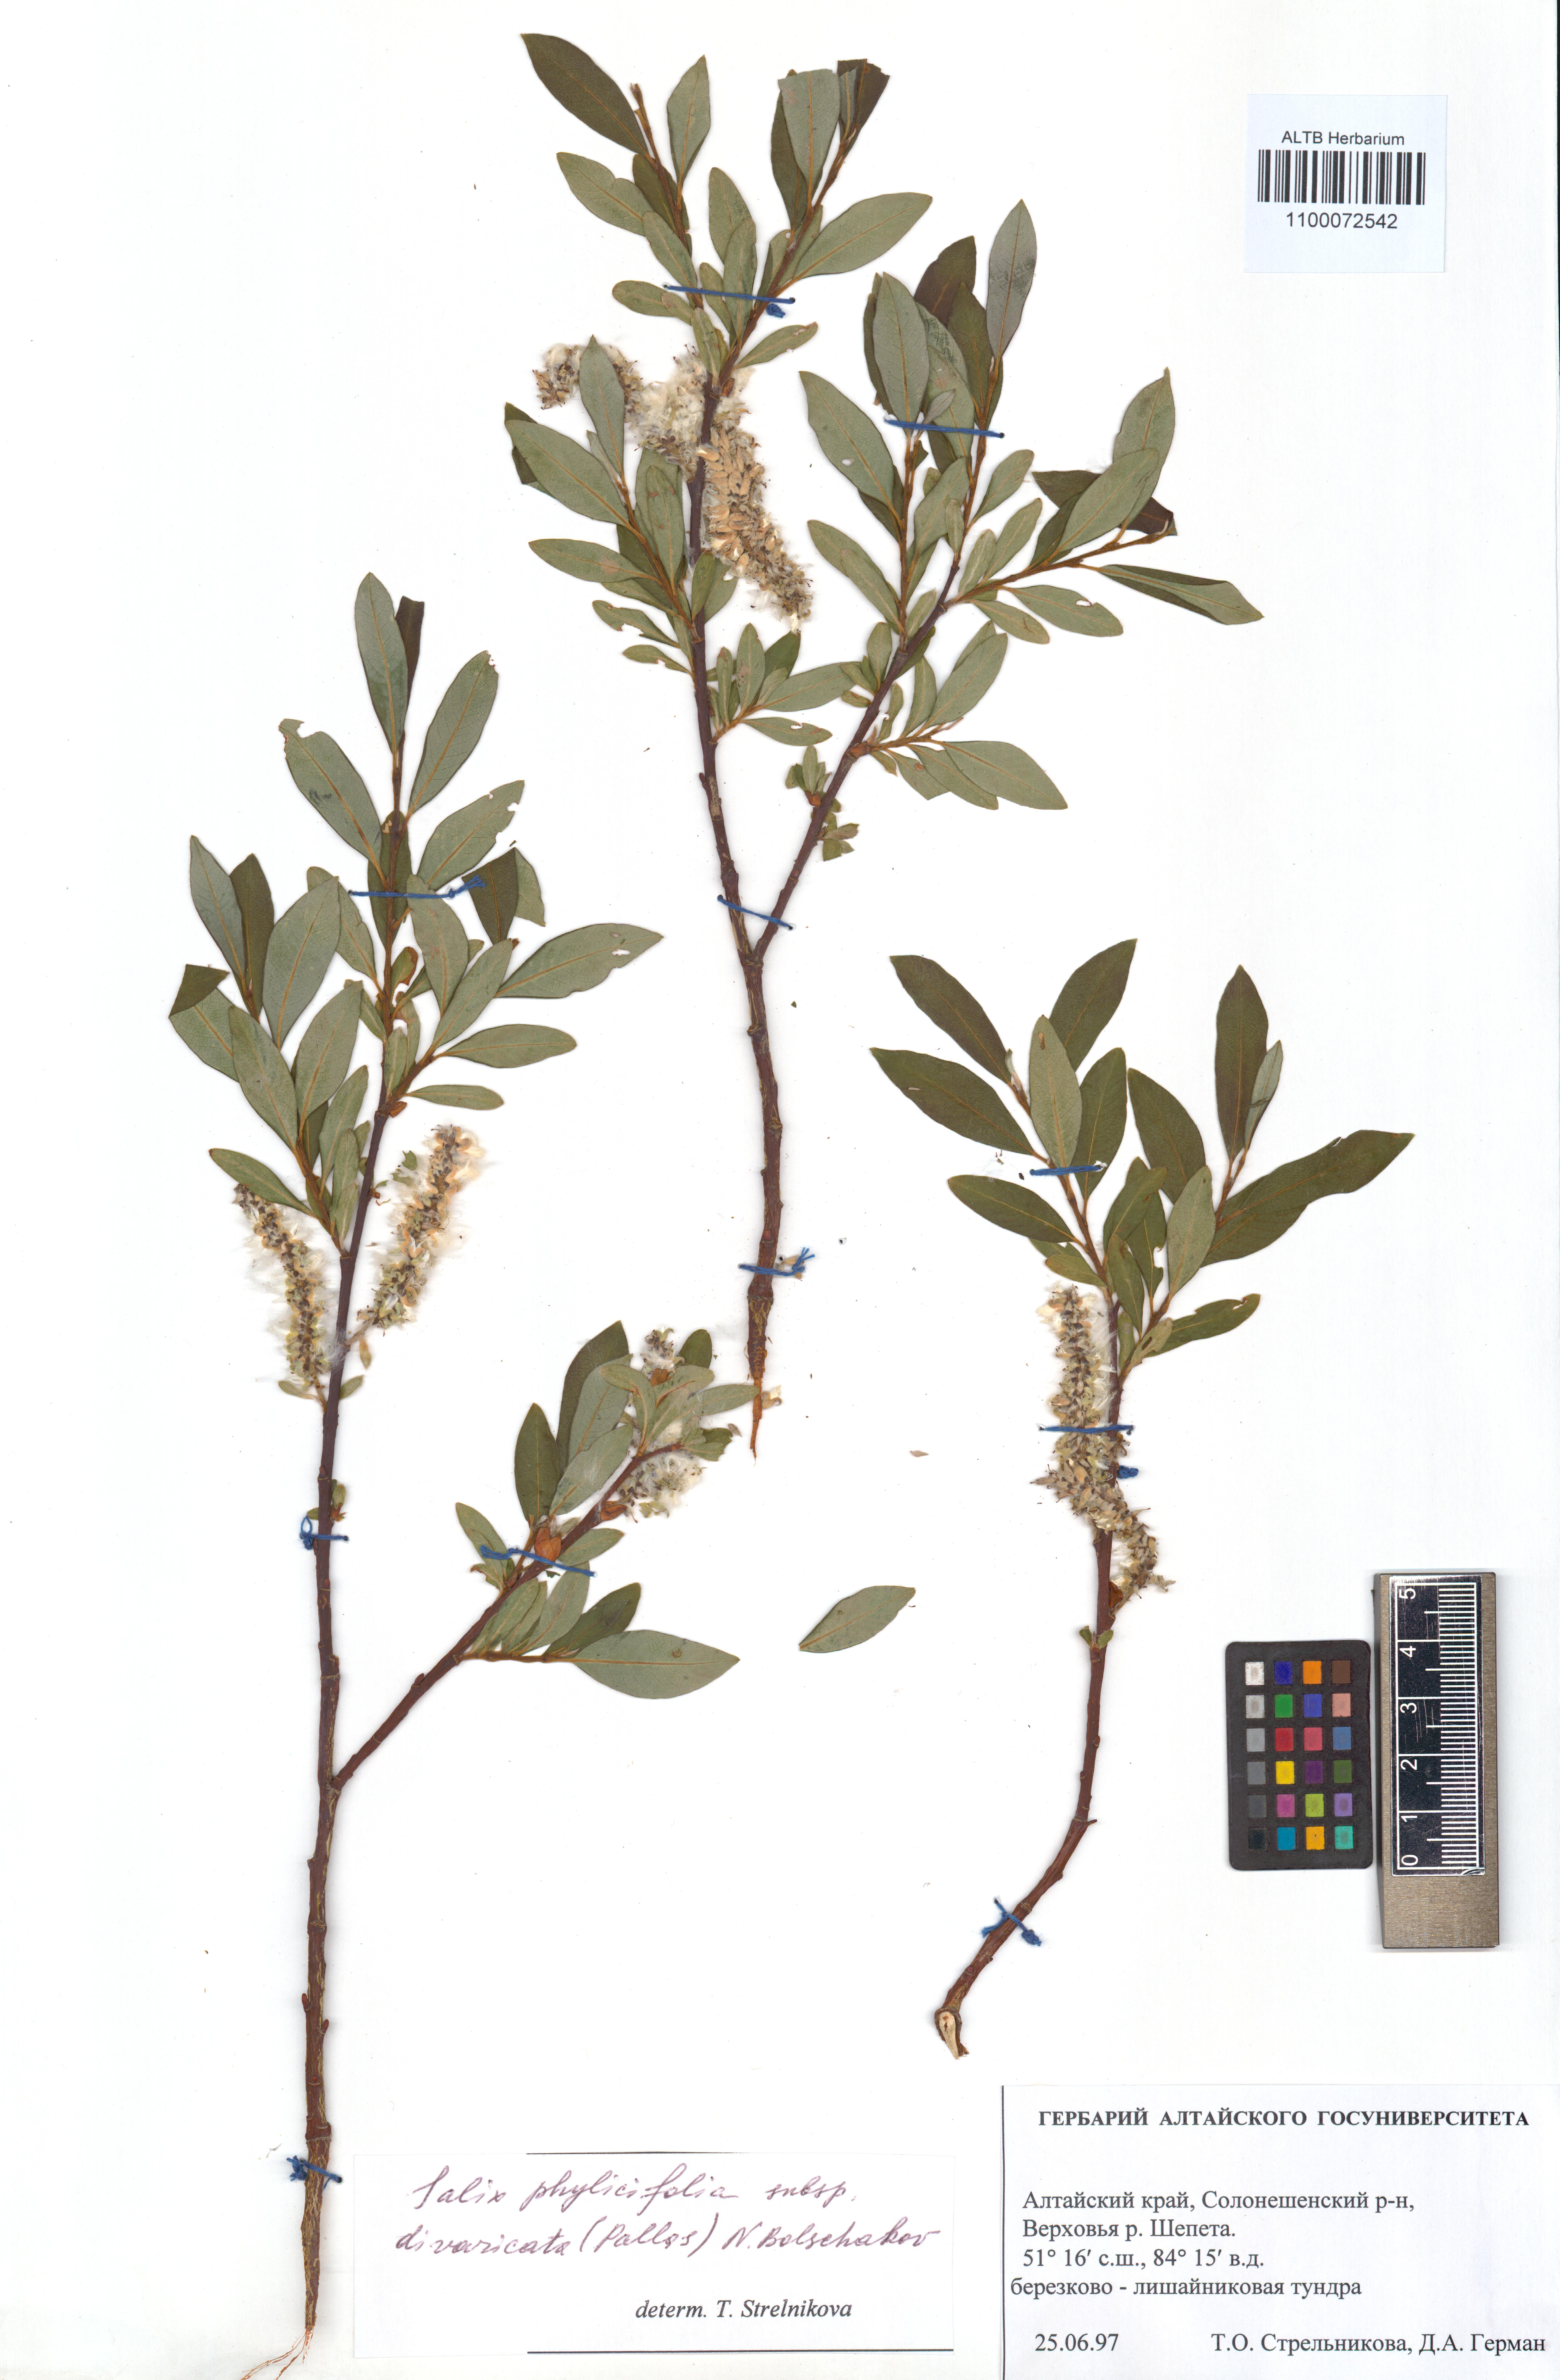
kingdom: Plantae
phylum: Tracheophyta
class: Magnoliopsida
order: Malpighiales
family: Salicaceae
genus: Salix
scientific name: Salix phylicifolia
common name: Tea-leaved willow
